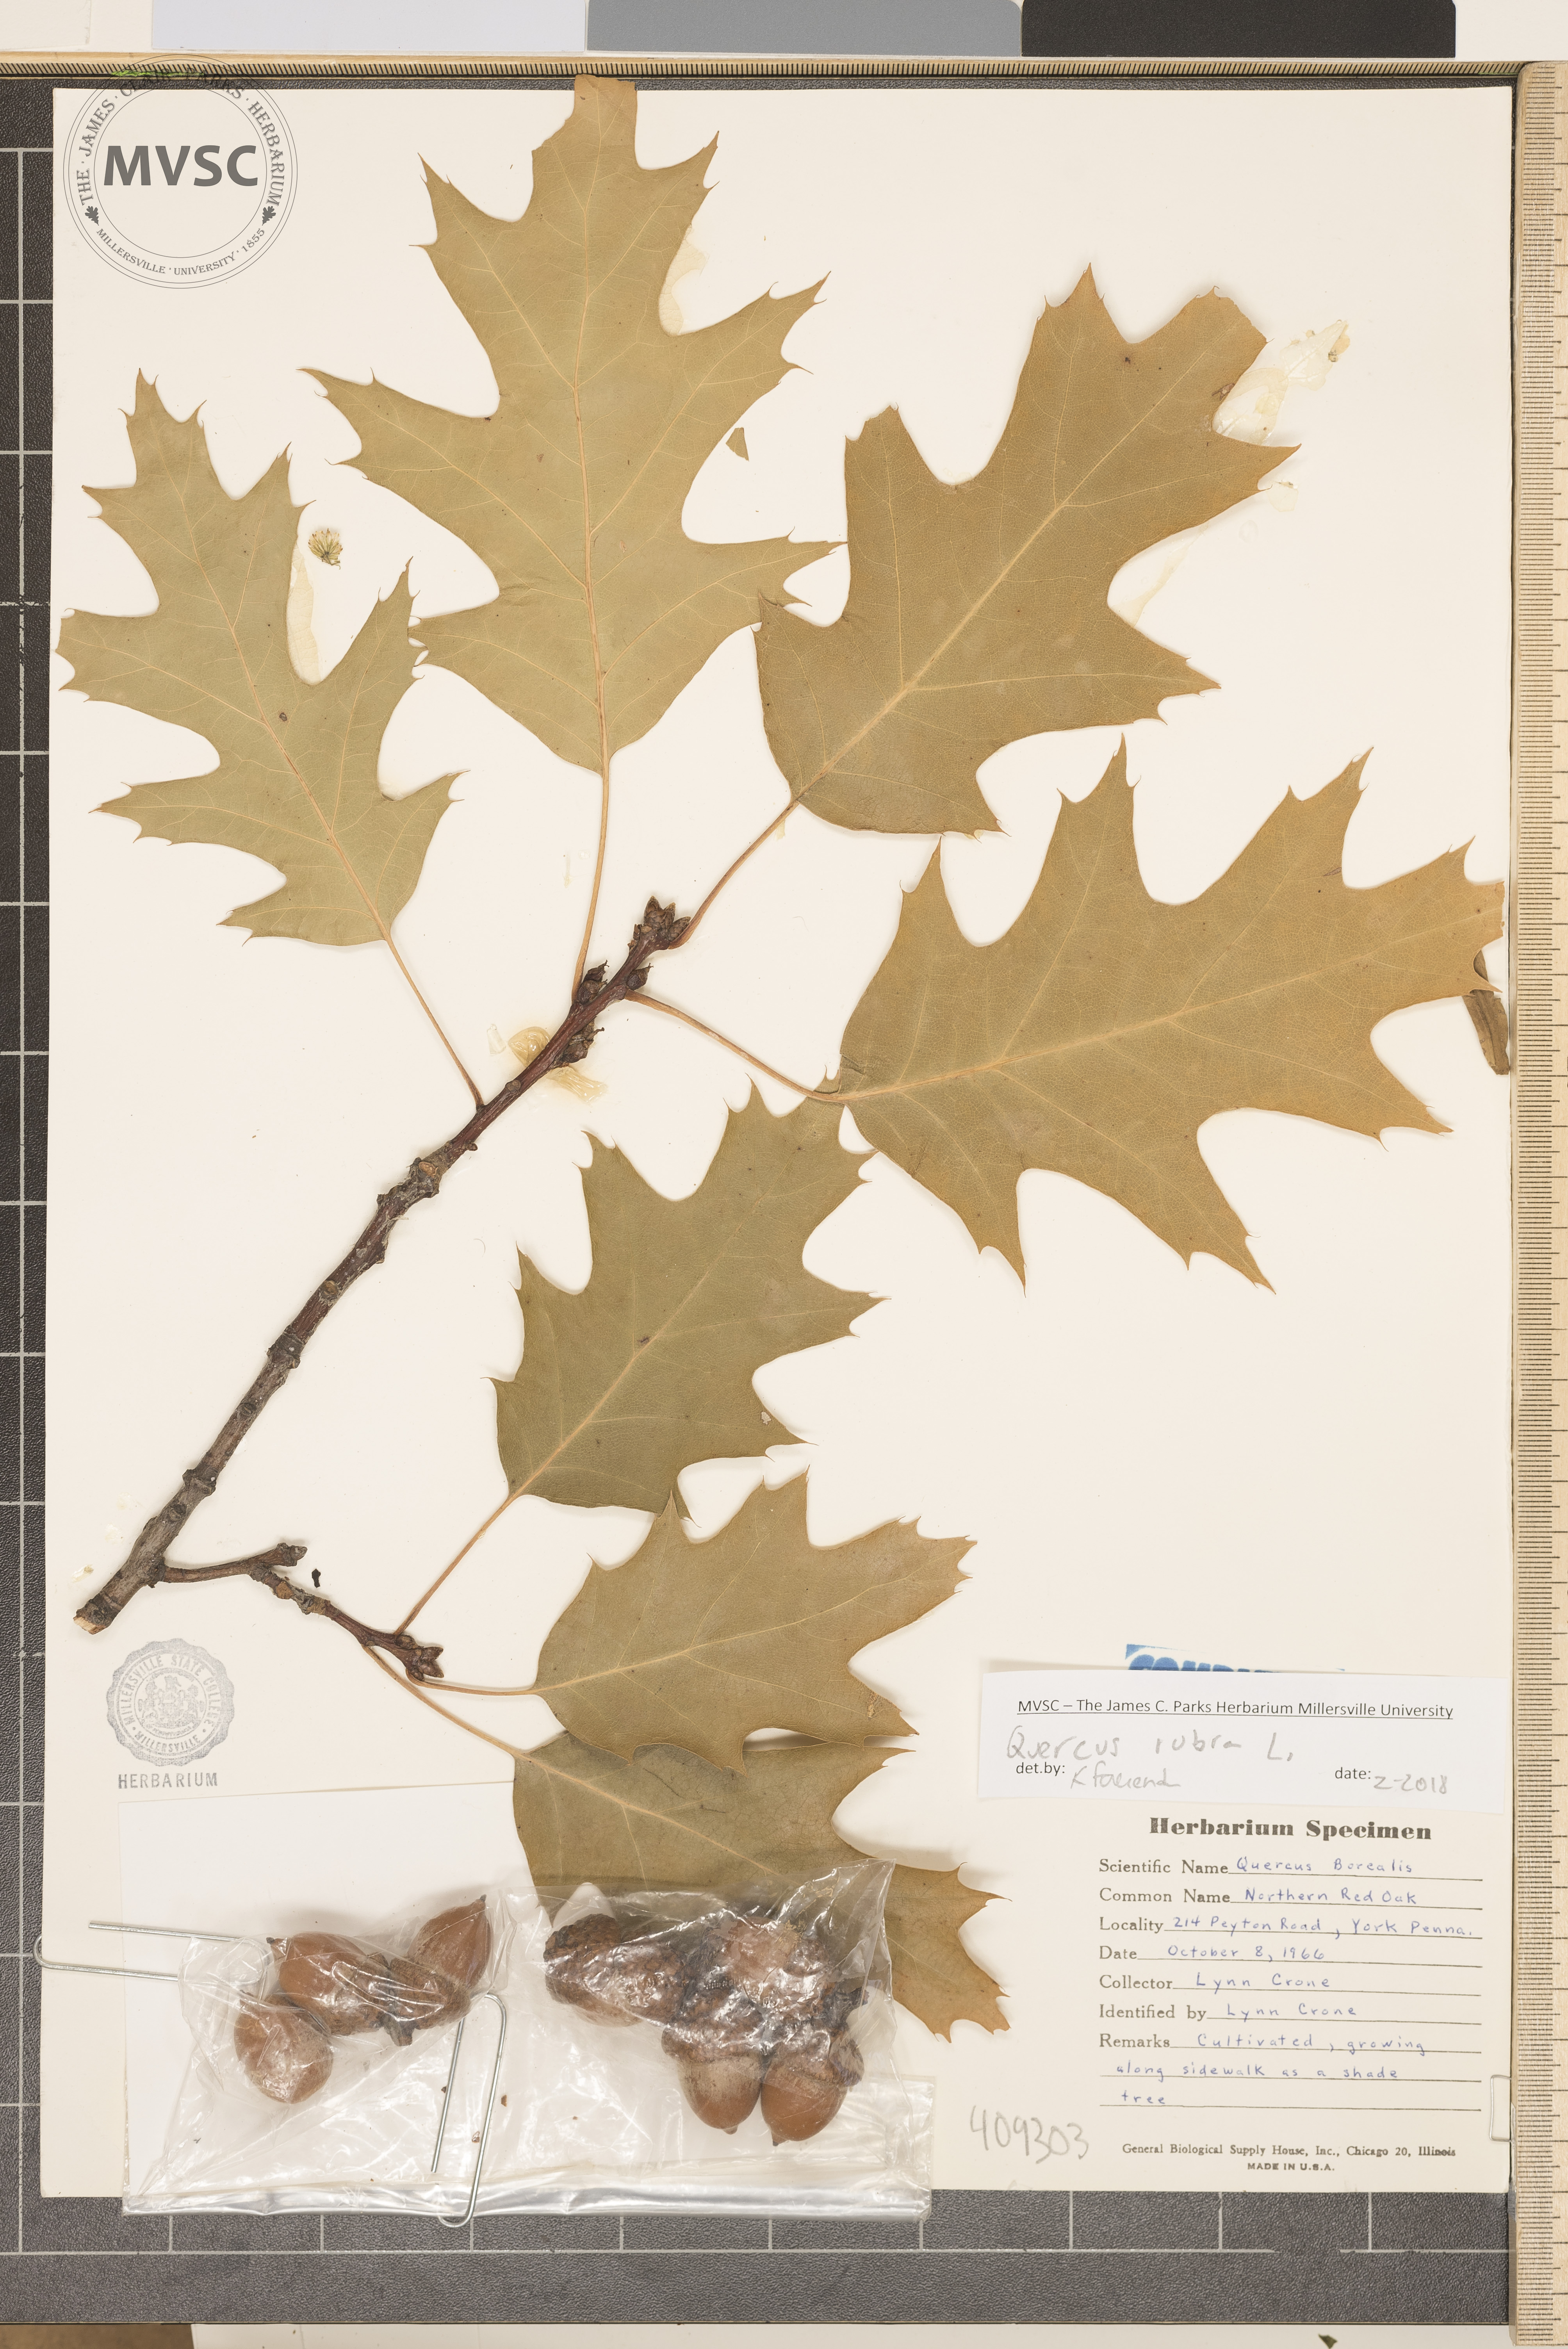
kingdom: Plantae
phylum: Tracheophyta
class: Magnoliopsida
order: Fagales
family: Fagaceae
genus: Quercus
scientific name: Quercus rubra
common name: Red oak
